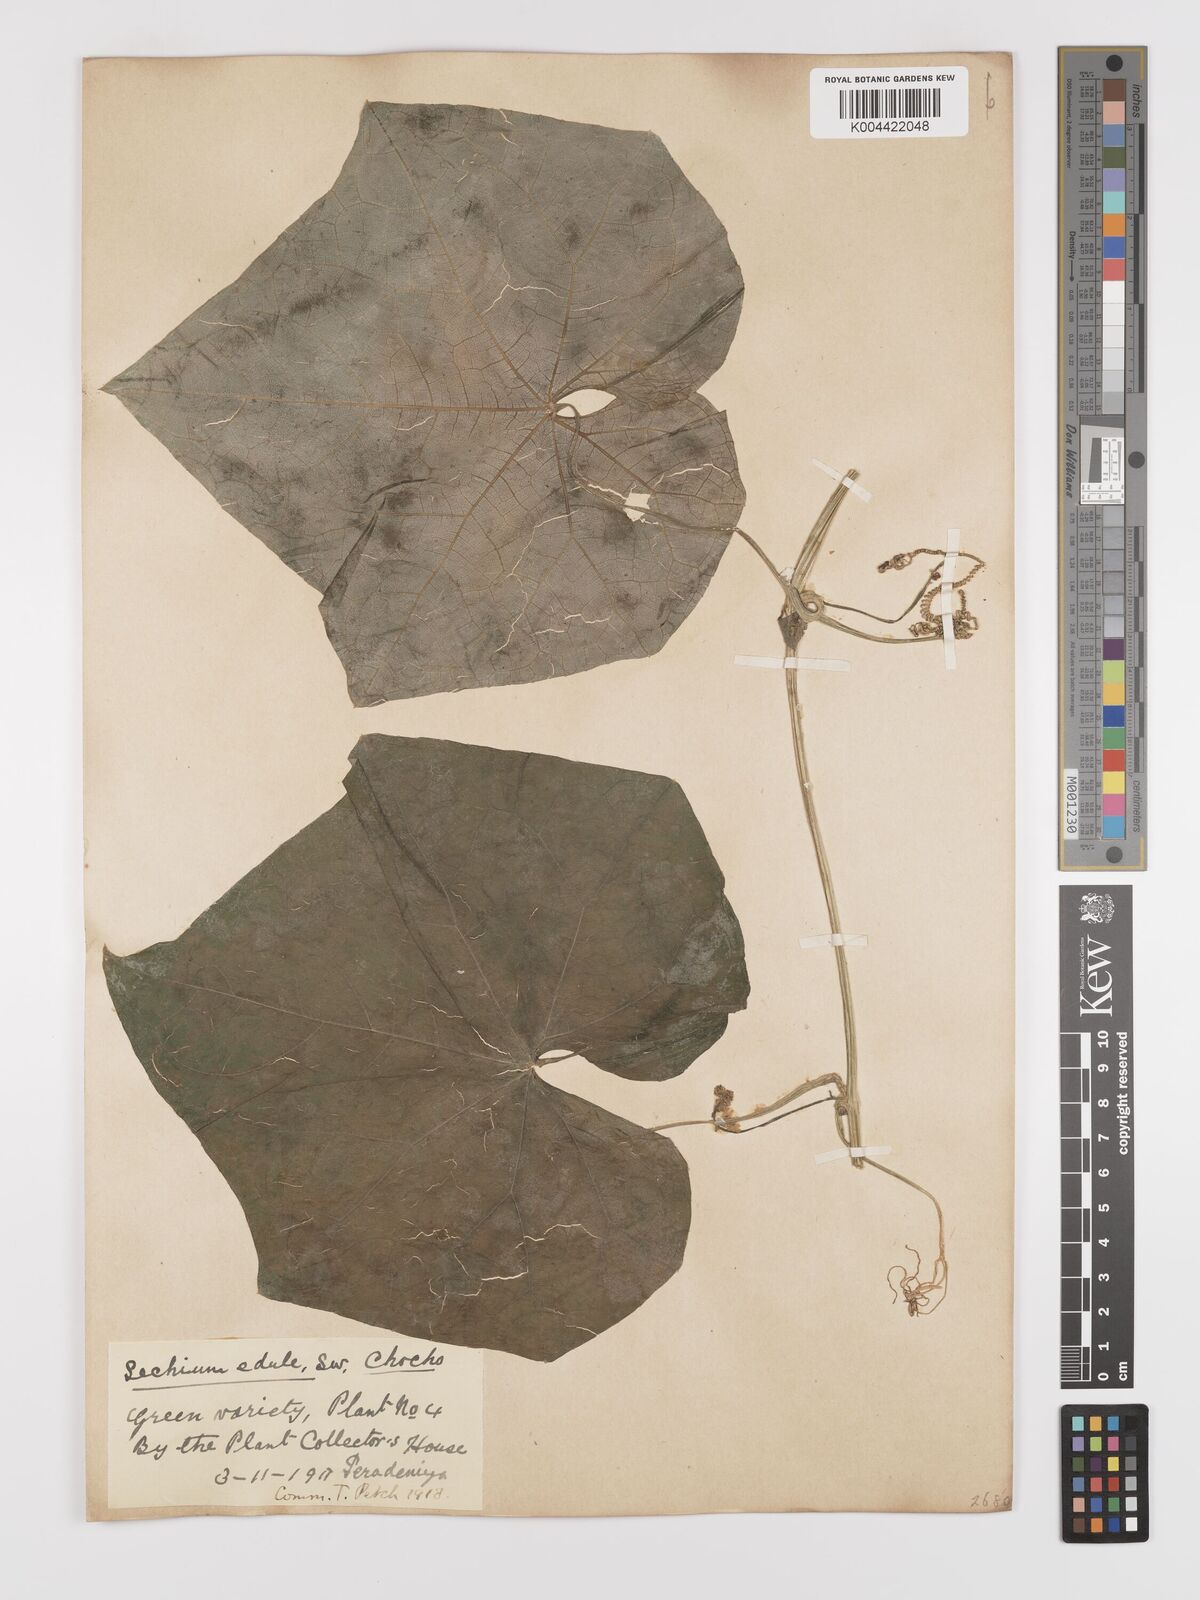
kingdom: Plantae
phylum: Tracheophyta
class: Magnoliopsida
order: Cucurbitales
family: Cucurbitaceae
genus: Sechium
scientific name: Sechium edule
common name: Chayote
